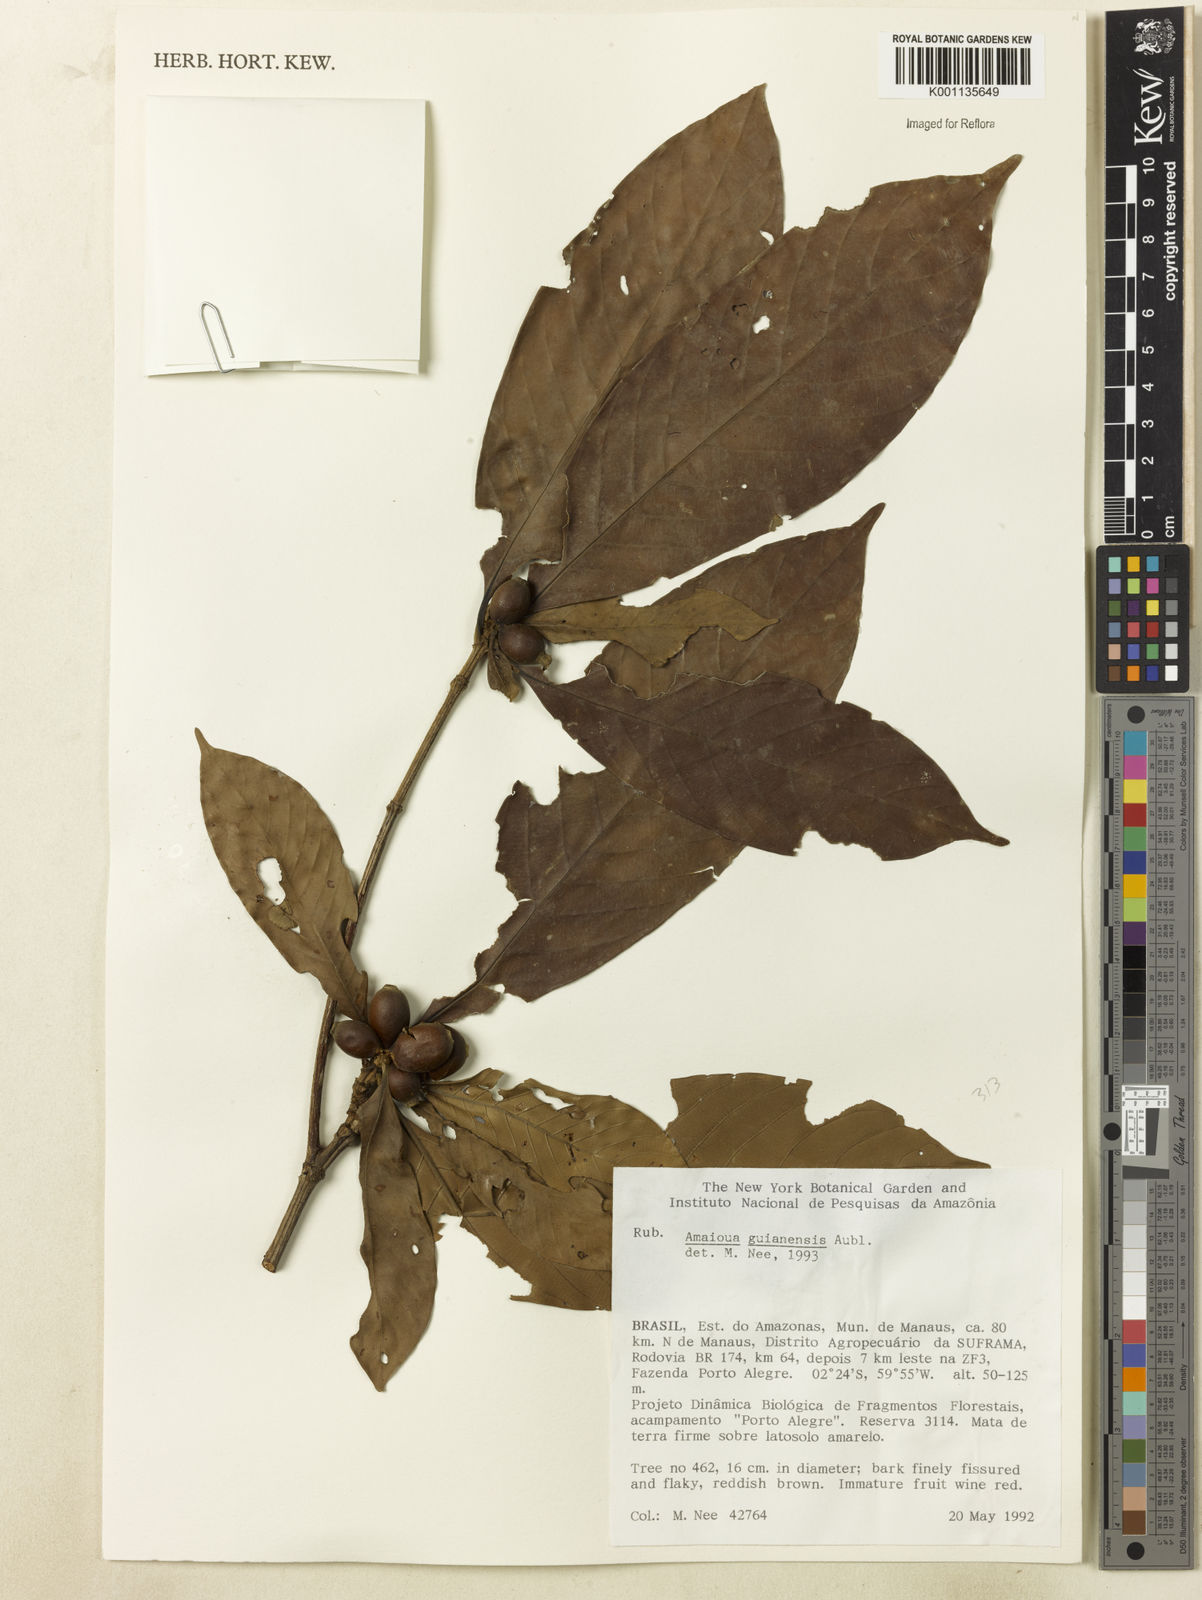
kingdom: Plantae
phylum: Tracheophyta
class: Magnoliopsida
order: Gentianales
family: Rubiaceae
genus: Amaioua
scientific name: Amaioua guianensis
